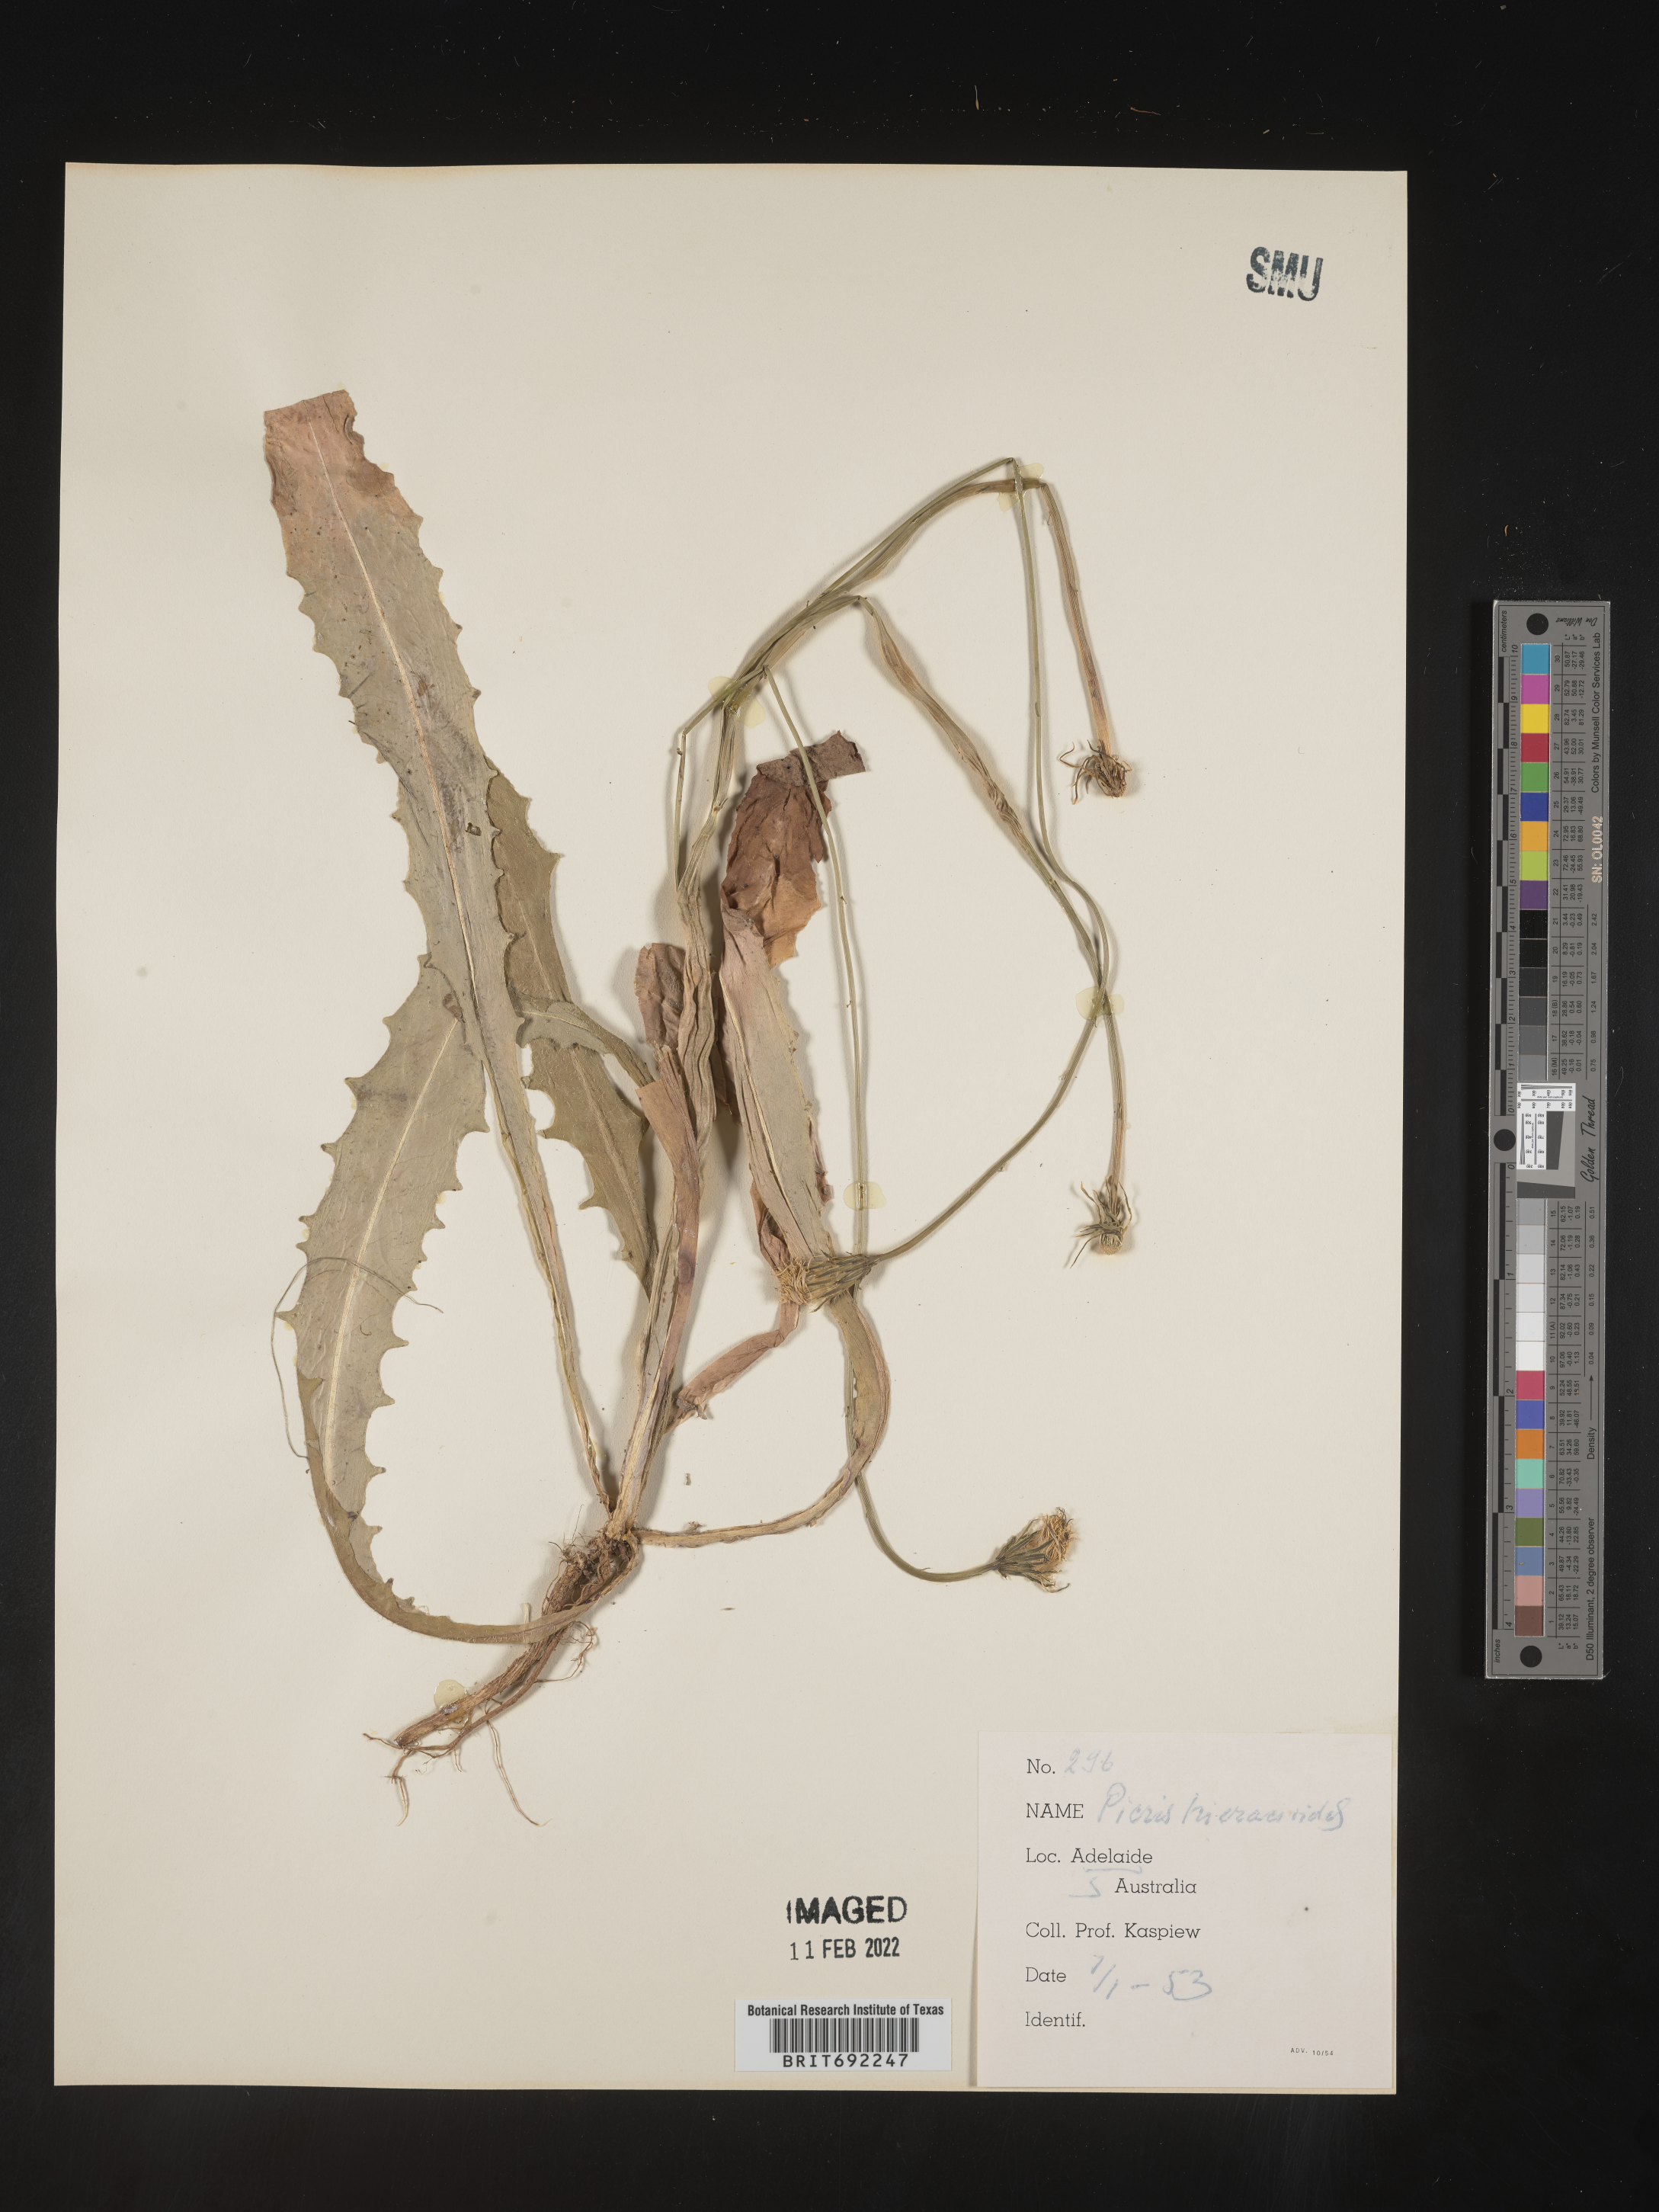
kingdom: Plantae
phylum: Tracheophyta
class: Magnoliopsida
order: Asterales
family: Asteraceae
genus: Critonia
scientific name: Critonia
